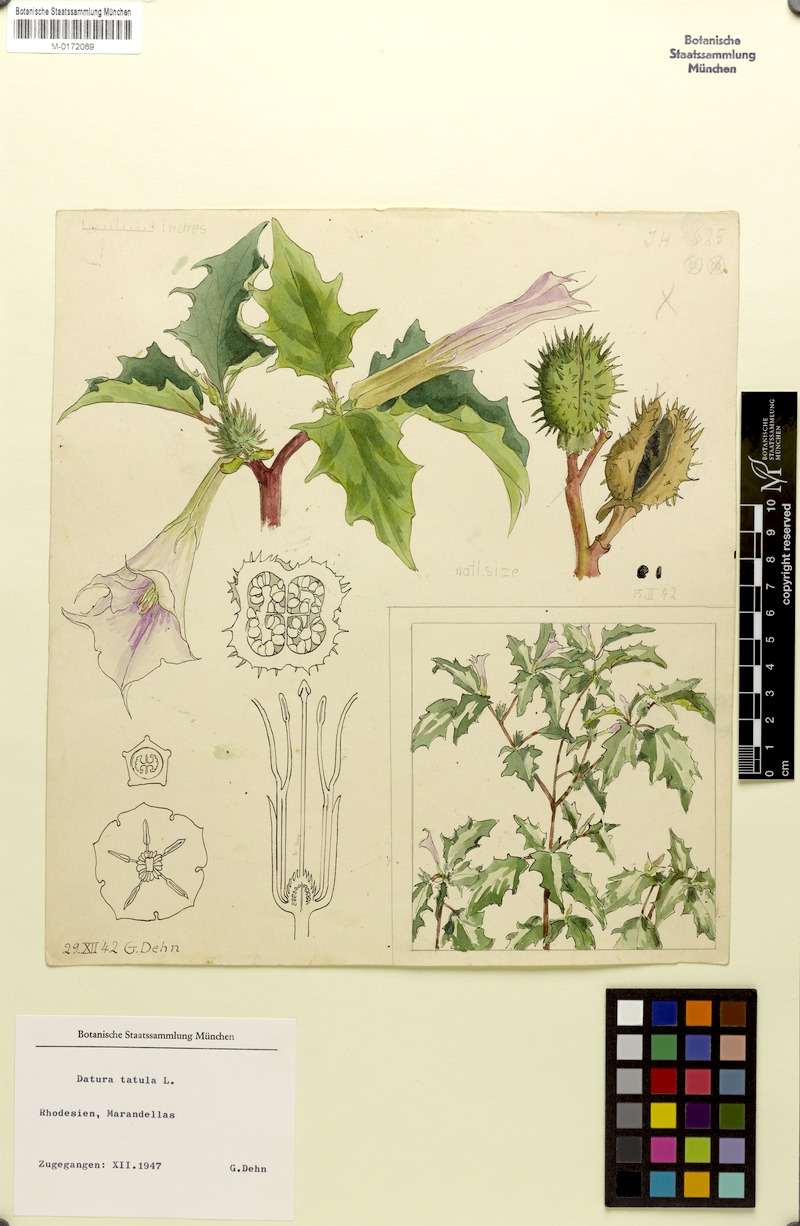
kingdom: Plantae
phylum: Tracheophyta
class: Magnoliopsida
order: Solanales
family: Solanaceae
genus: Datura
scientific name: Datura stramonium
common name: Thorn-apple
